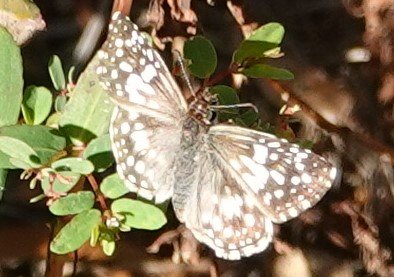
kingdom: Animalia
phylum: Arthropoda
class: Insecta
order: Lepidoptera
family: Hesperiidae
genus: Pyrgus
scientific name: Pyrgus
